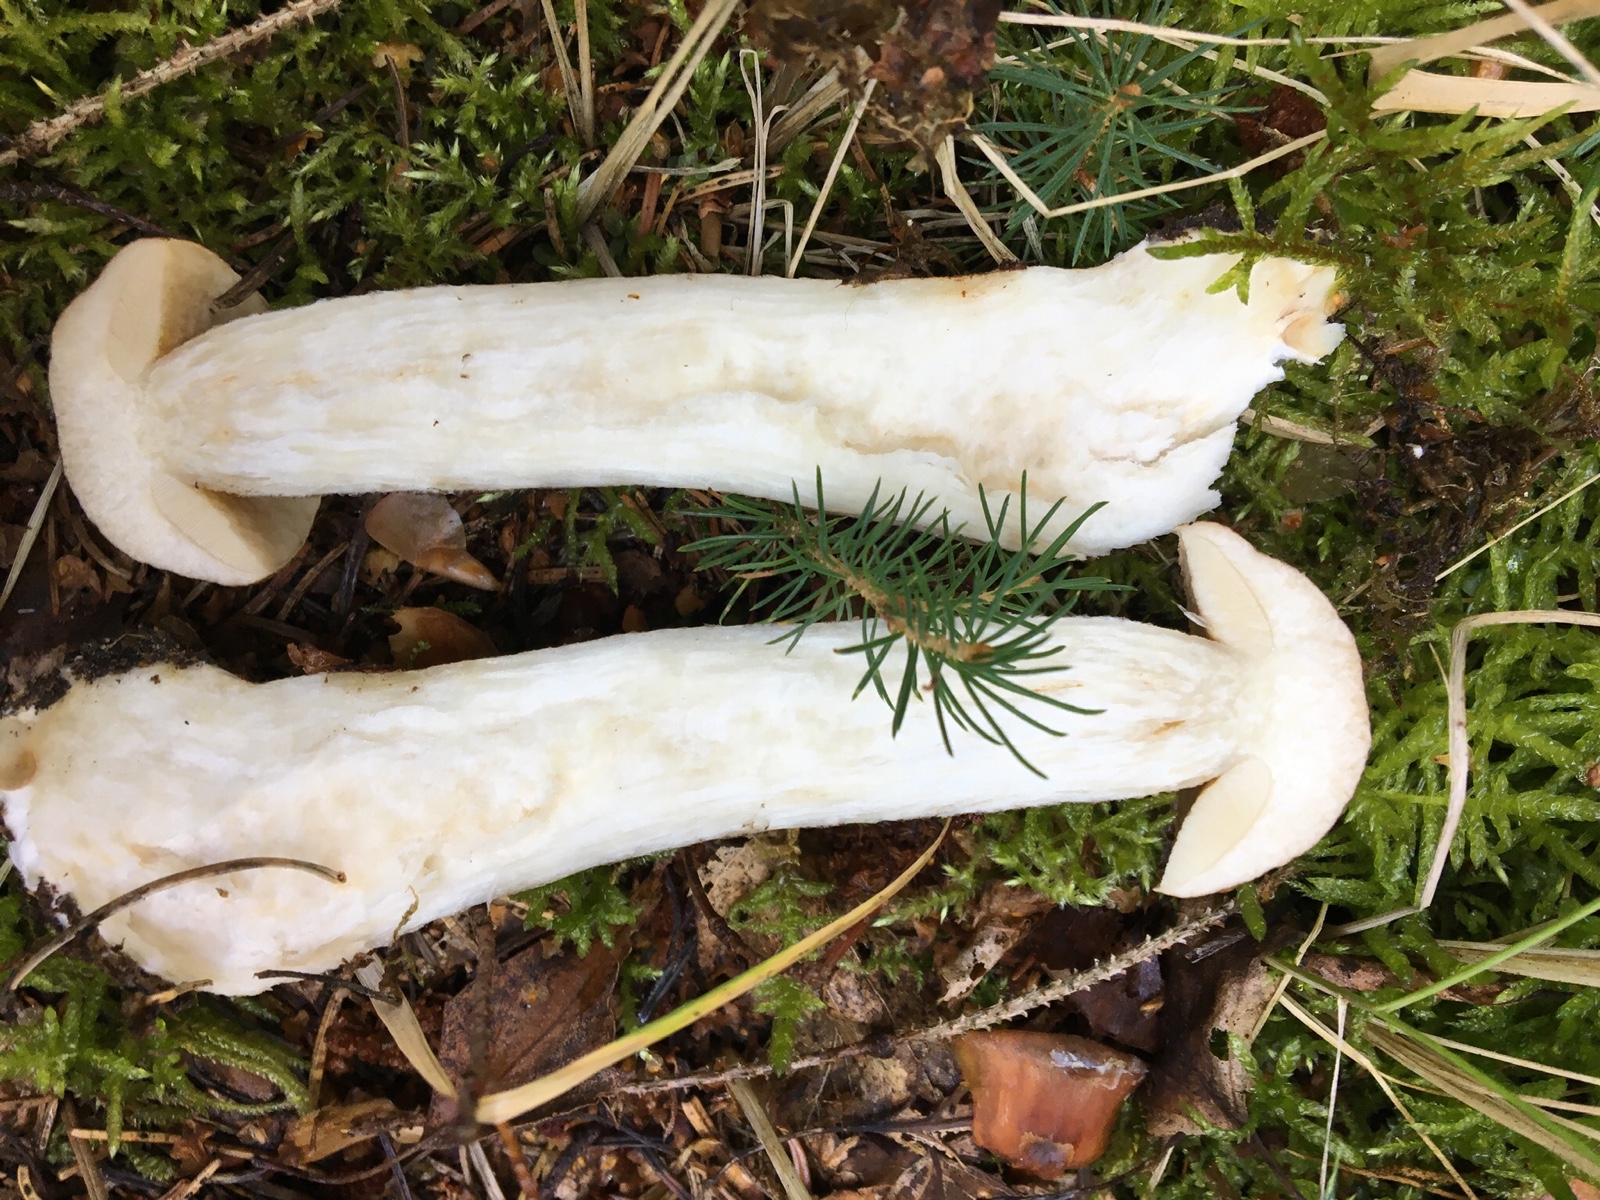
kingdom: Fungi
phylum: Basidiomycota
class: Agaricomycetes
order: Boletales
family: Boletaceae
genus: Leccinum
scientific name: Leccinum versipelle
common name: orange skælrørhat
